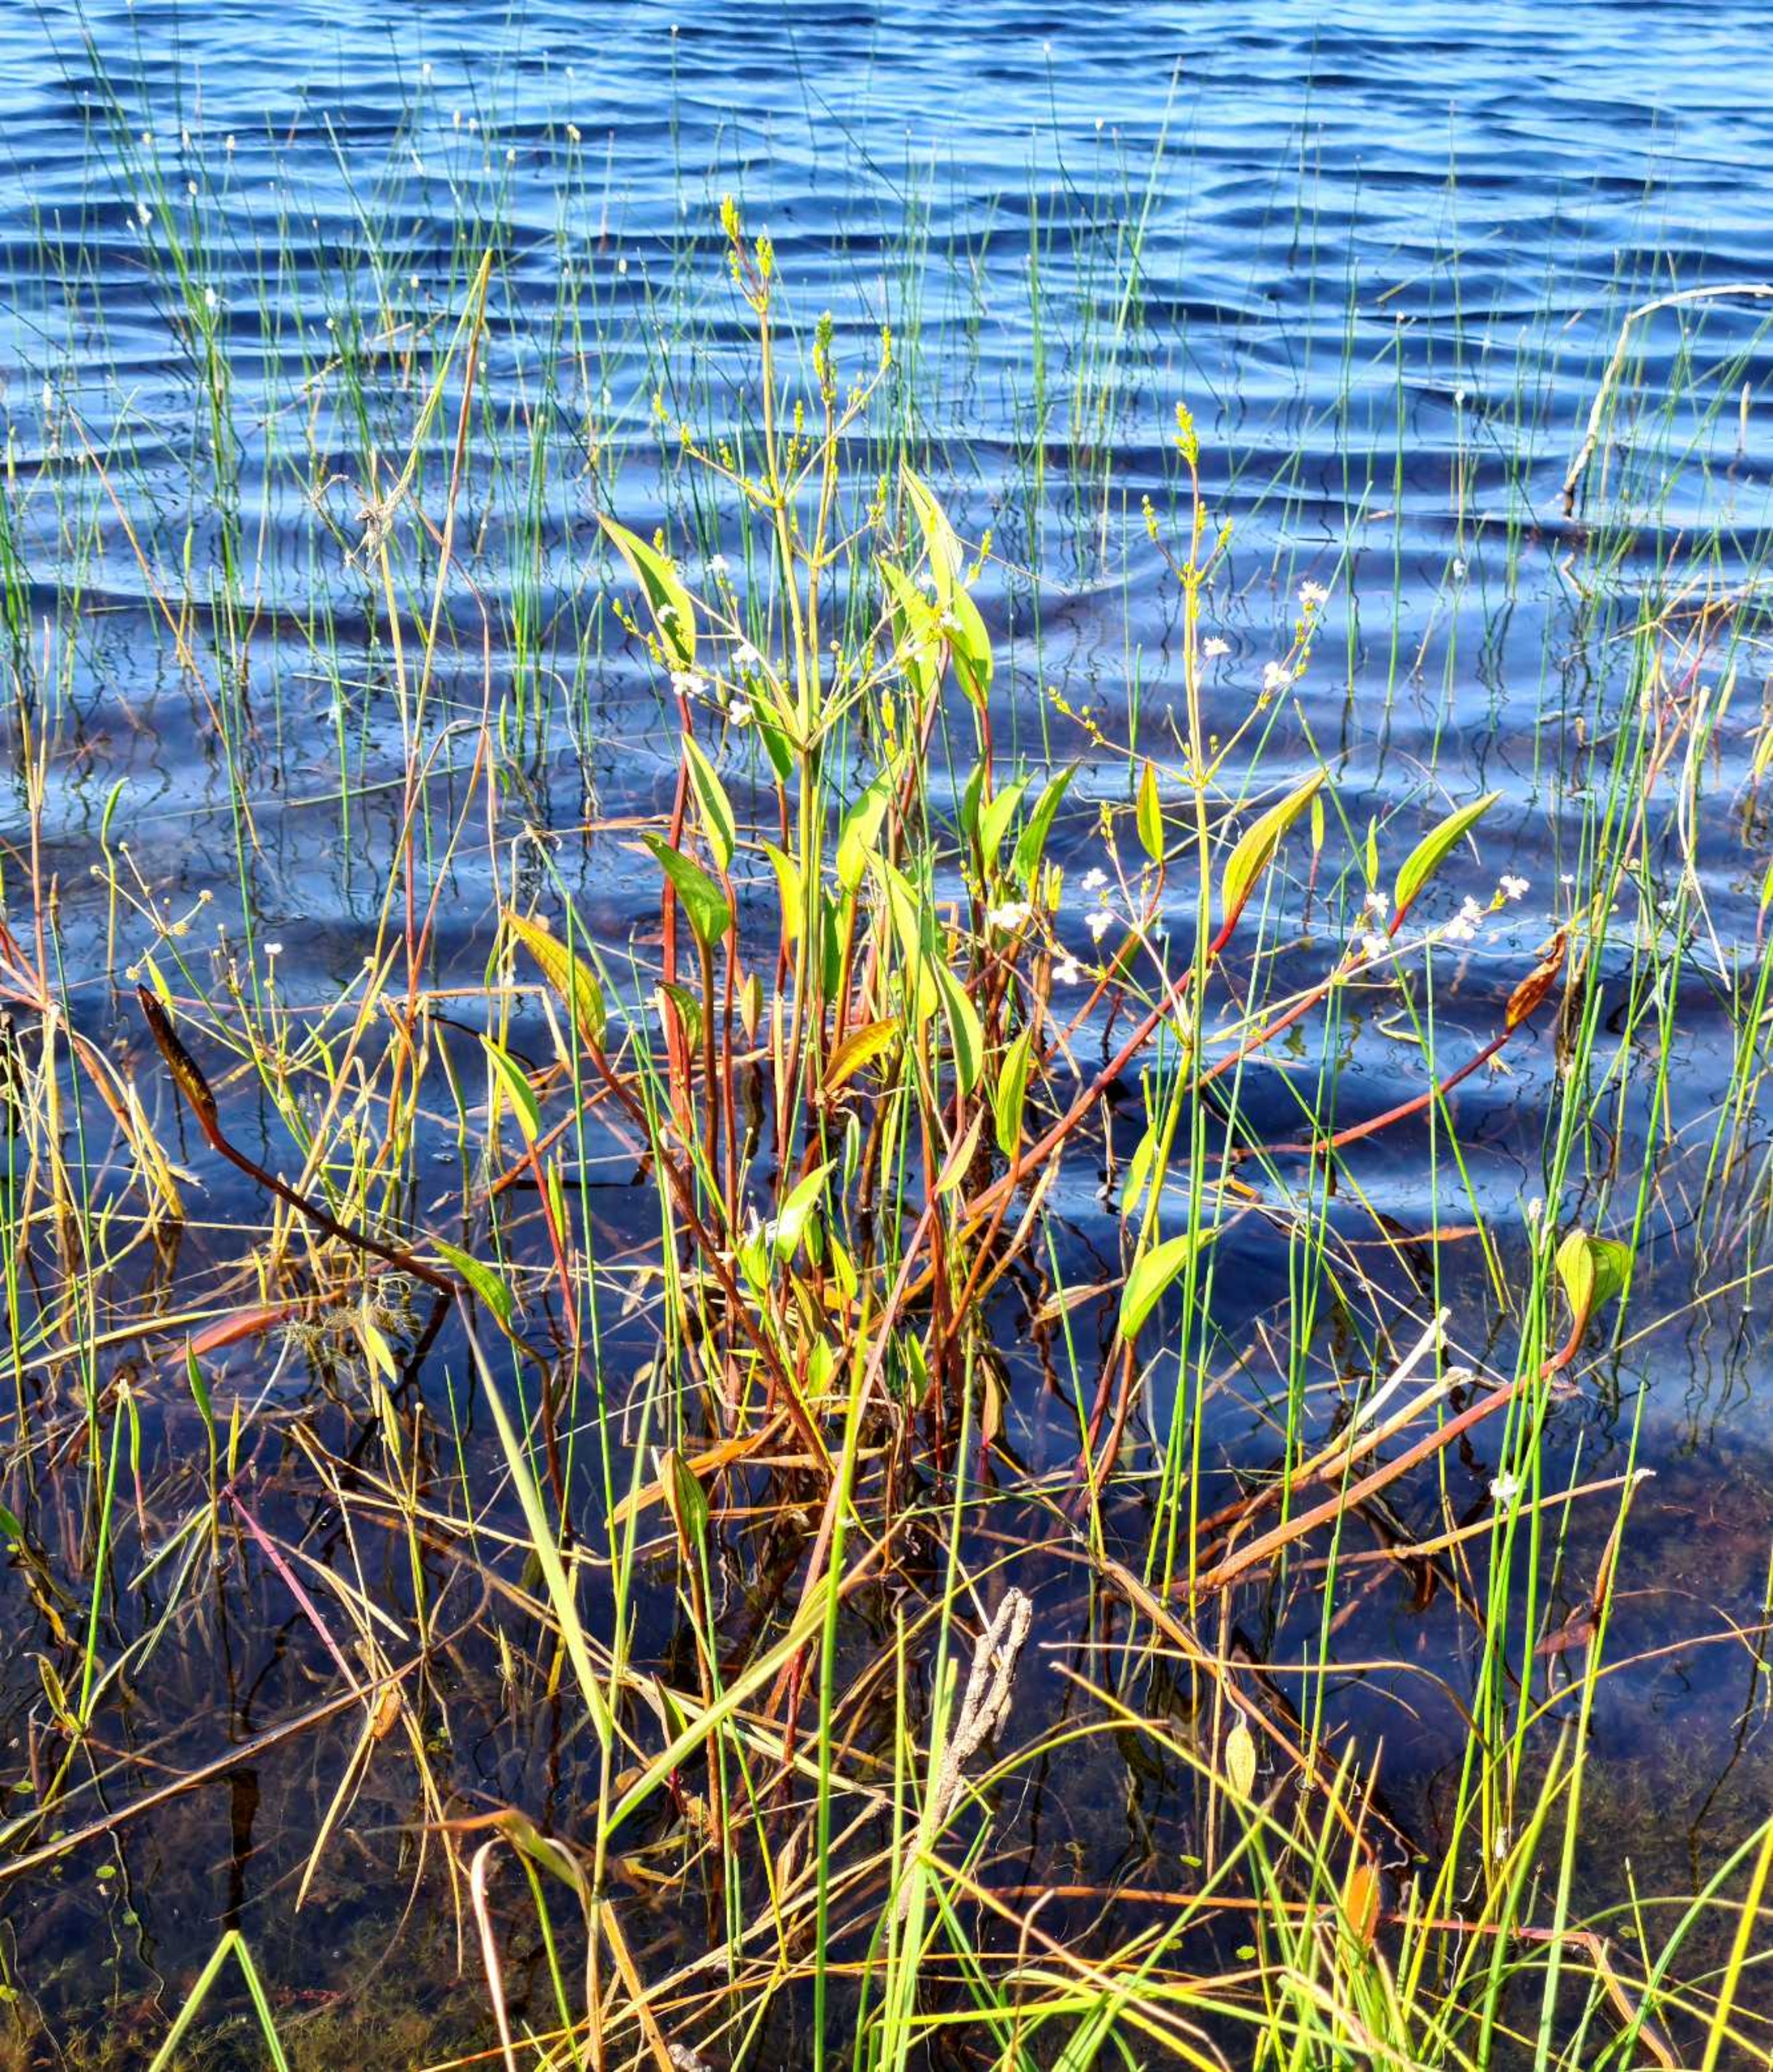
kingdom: Plantae
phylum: Tracheophyta
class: Liliopsida
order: Alismatales
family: Alismataceae
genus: Alisma
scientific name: Alisma plantago-aquatica
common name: Vejbred-skeblad
